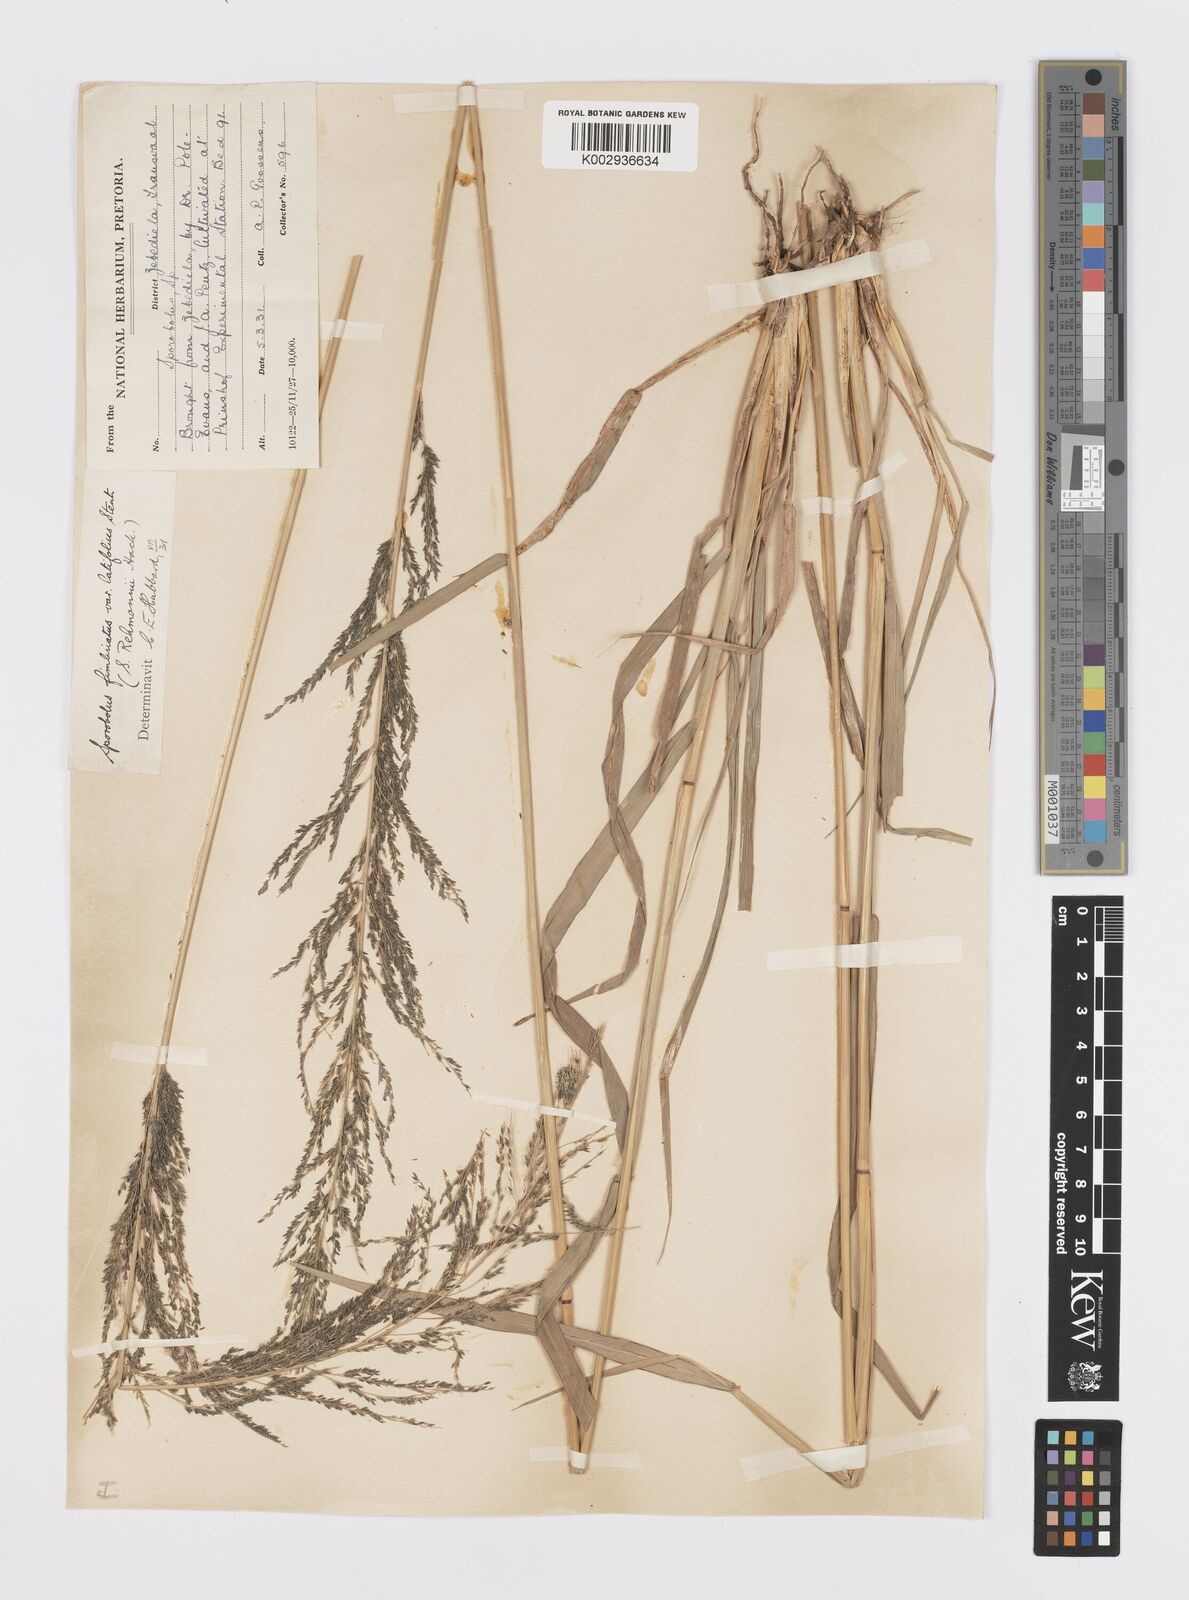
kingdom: Plantae
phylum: Tracheophyta
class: Liliopsida
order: Poales
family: Poaceae
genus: Sporobolus
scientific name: Sporobolus fimbriatus
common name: Fringed dropseed
